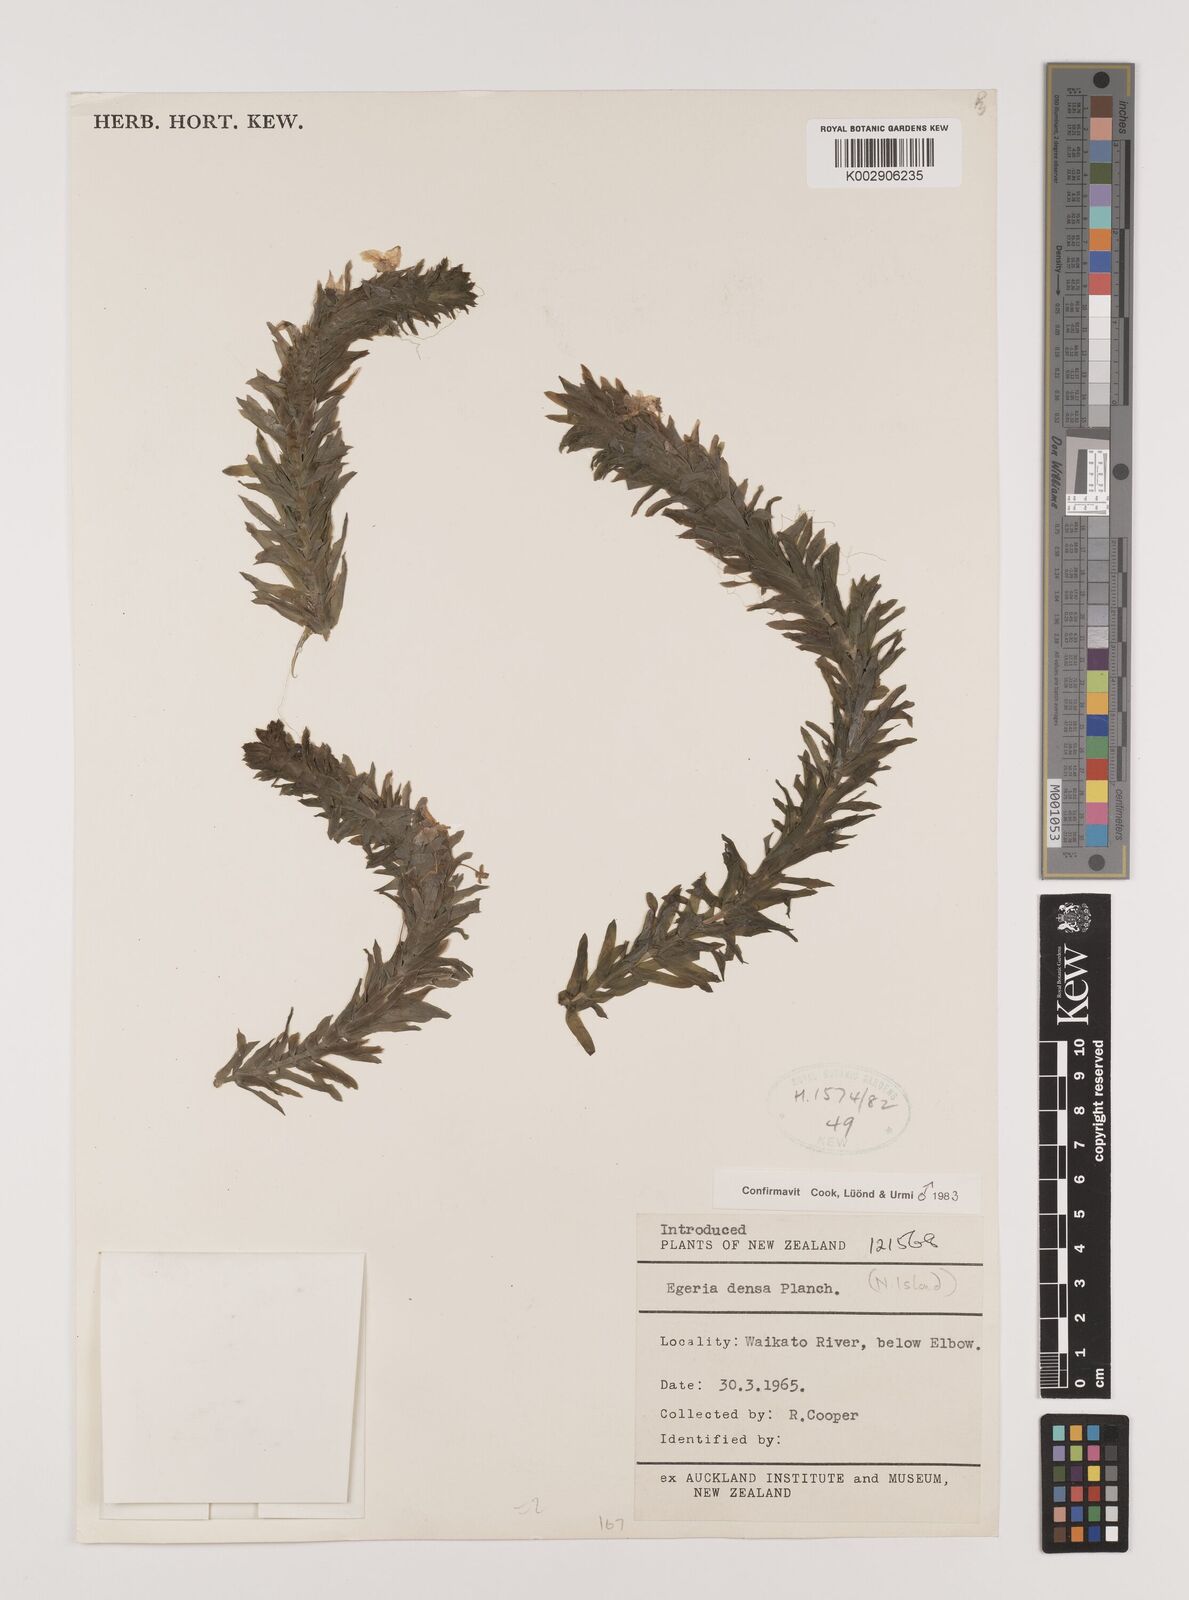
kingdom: Plantae
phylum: Tracheophyta
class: Liliopsida
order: Alismatales
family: Hydrocharitaceae
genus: Elodea
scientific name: Elodea densa
